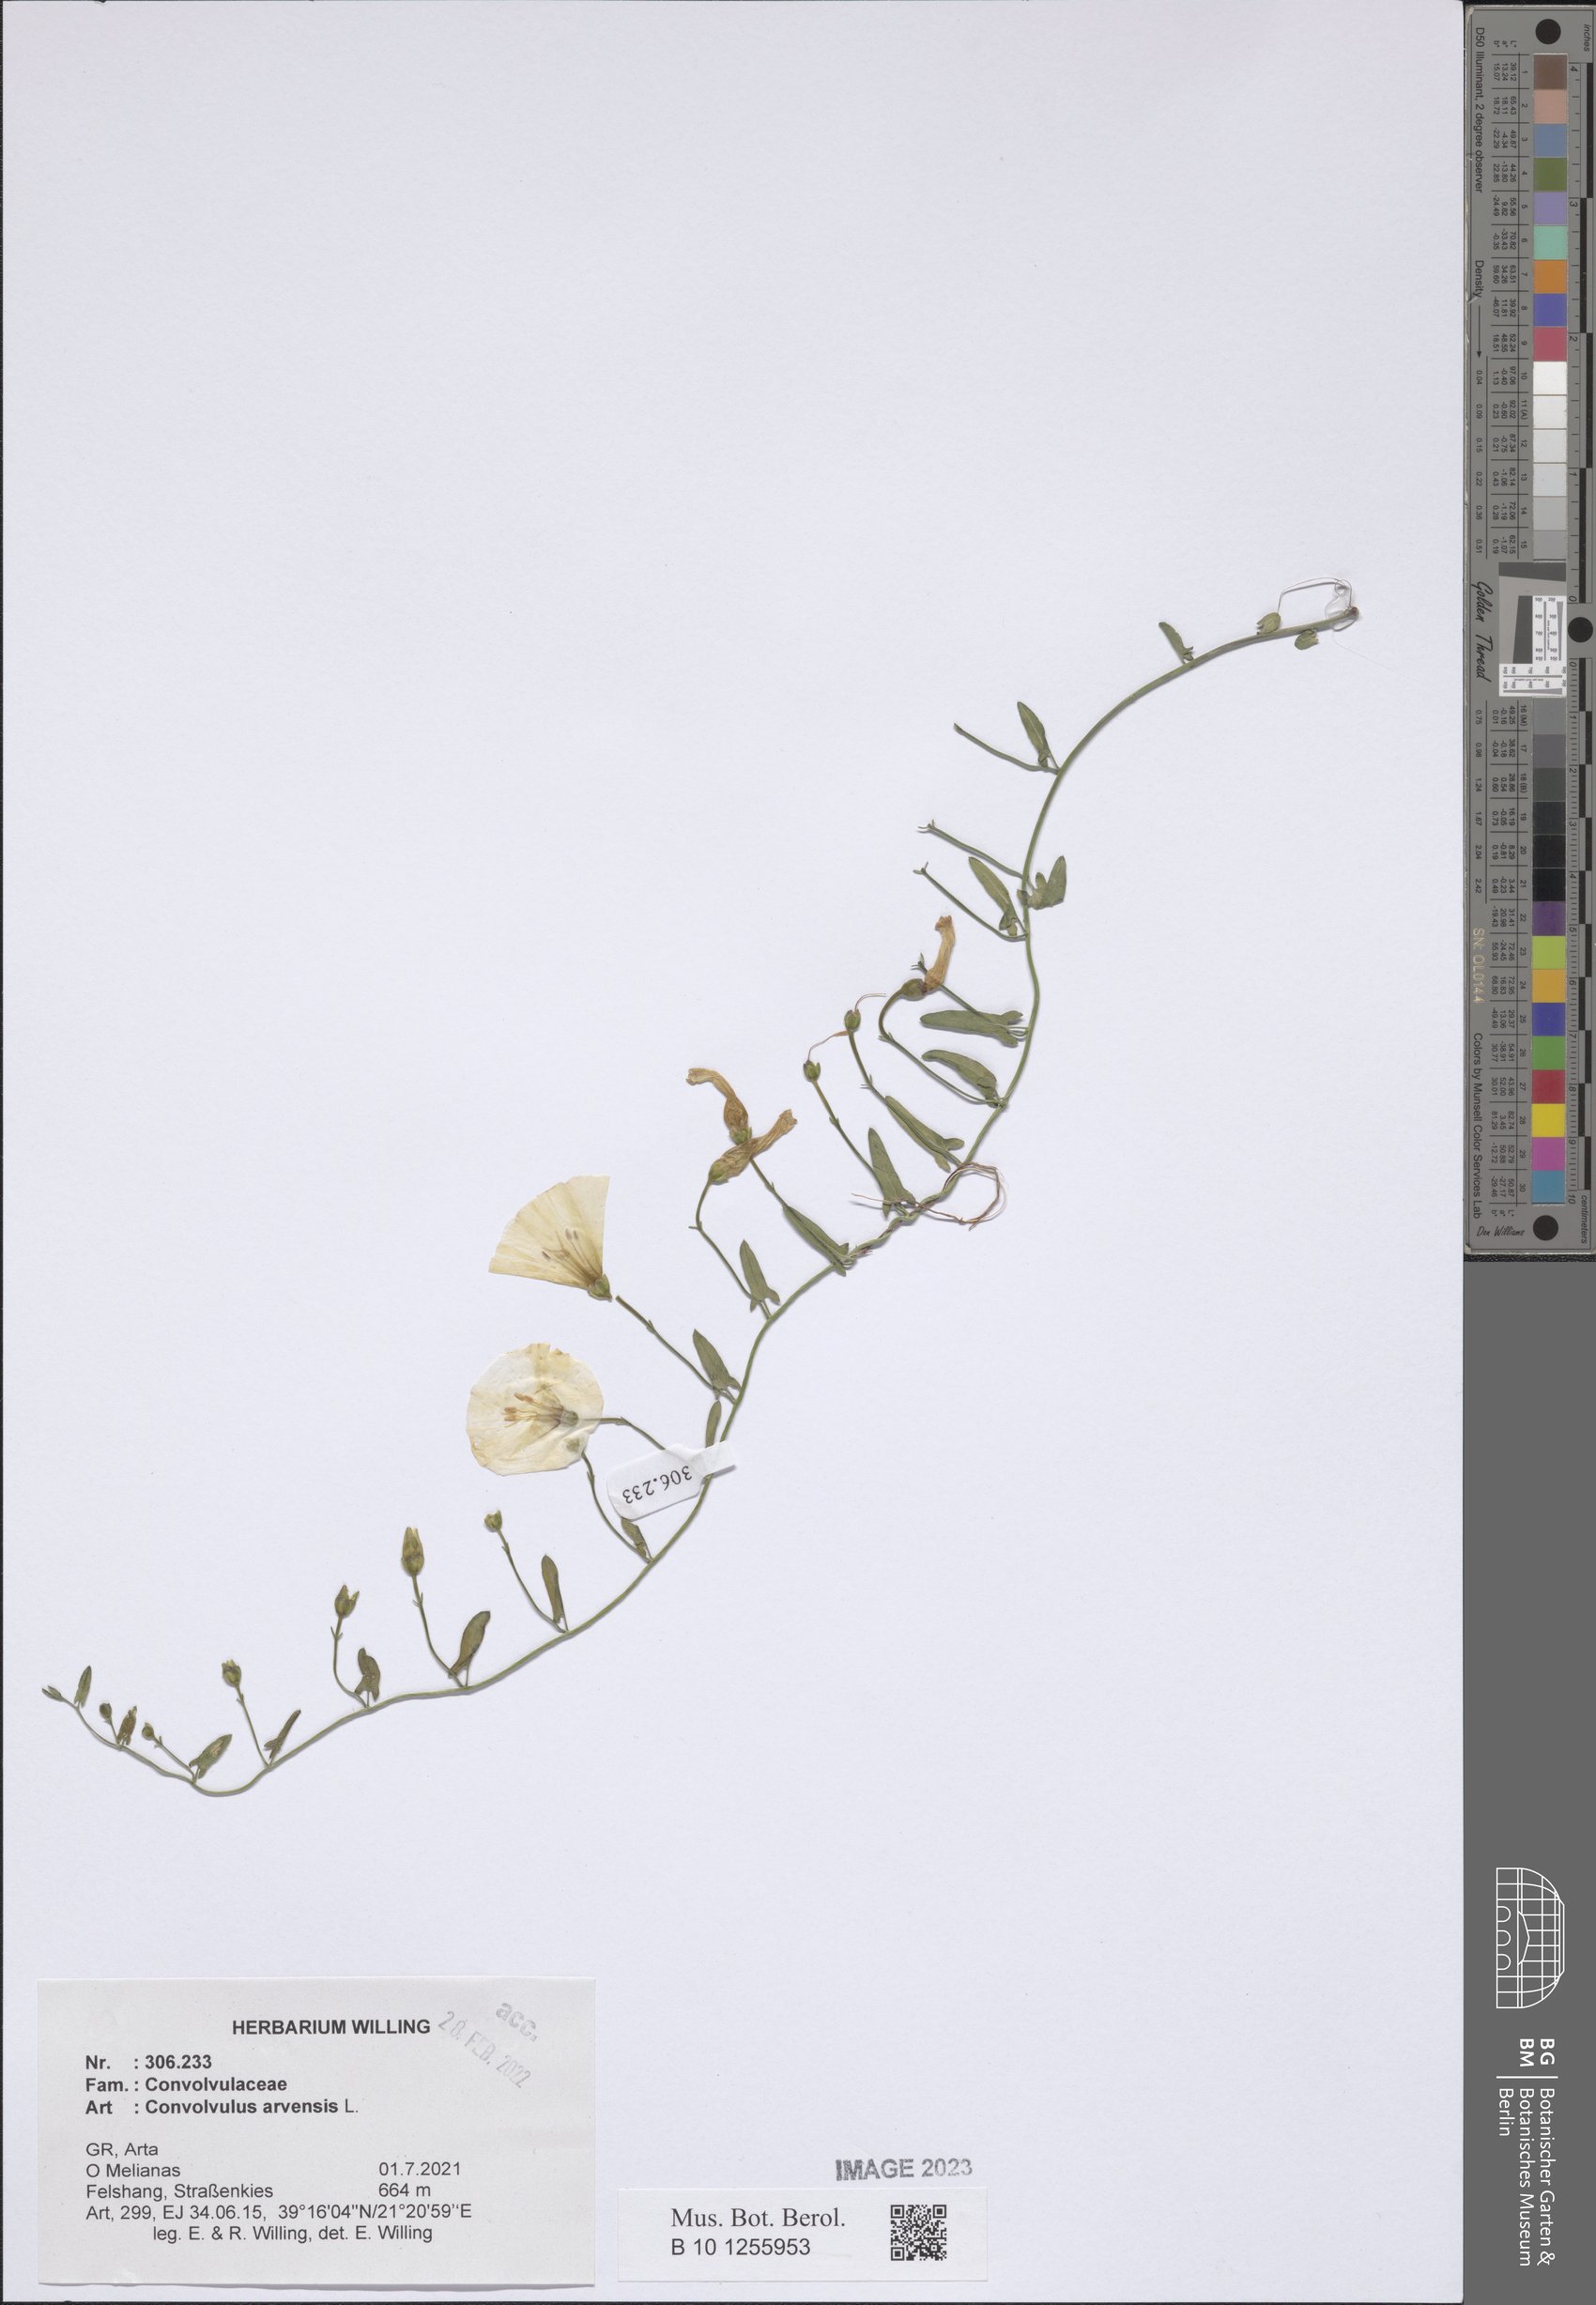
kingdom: Plantae
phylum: Tracheophyta
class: Magnoliopsida
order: Solanales
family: Convolvulaceae
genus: Convolvulus
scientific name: Convolvulus arvensis
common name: Field bindweed
